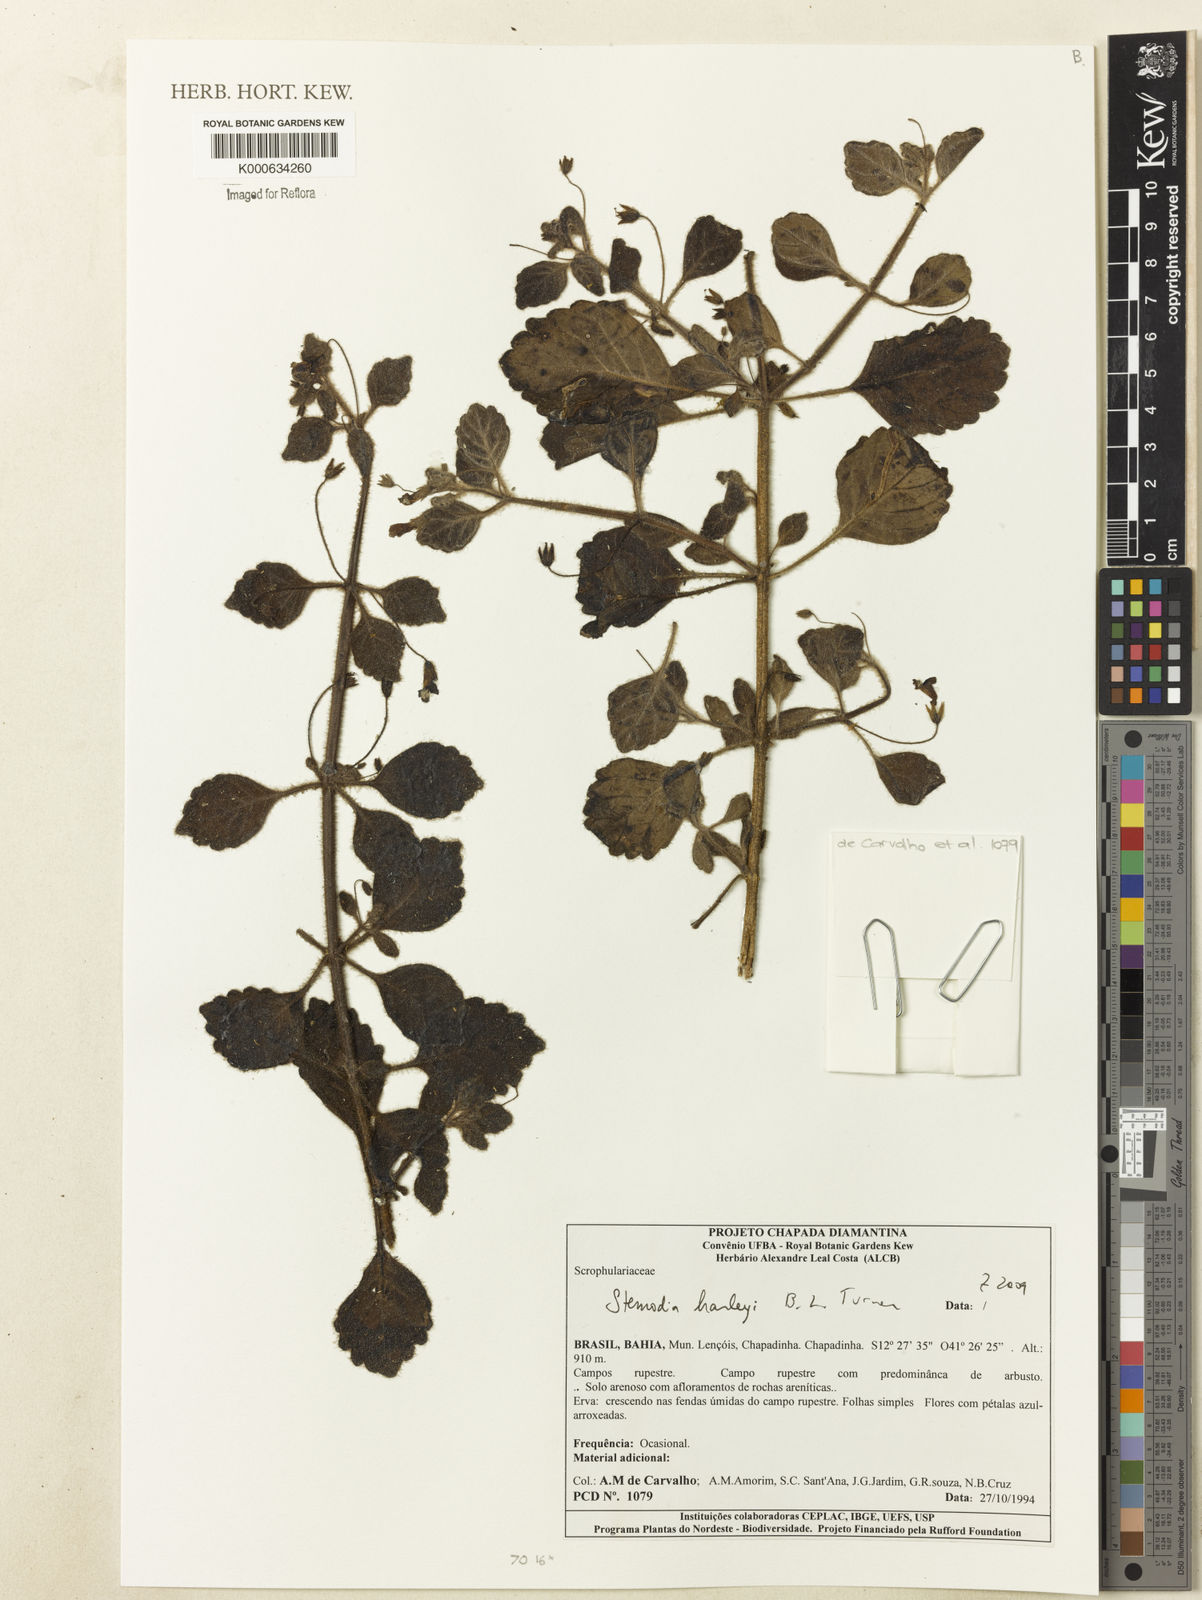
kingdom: Plantae
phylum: Tracheophyta
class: Magnoliopsida
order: Lamiales
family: Plantaginaceae
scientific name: Plantaginaceae
